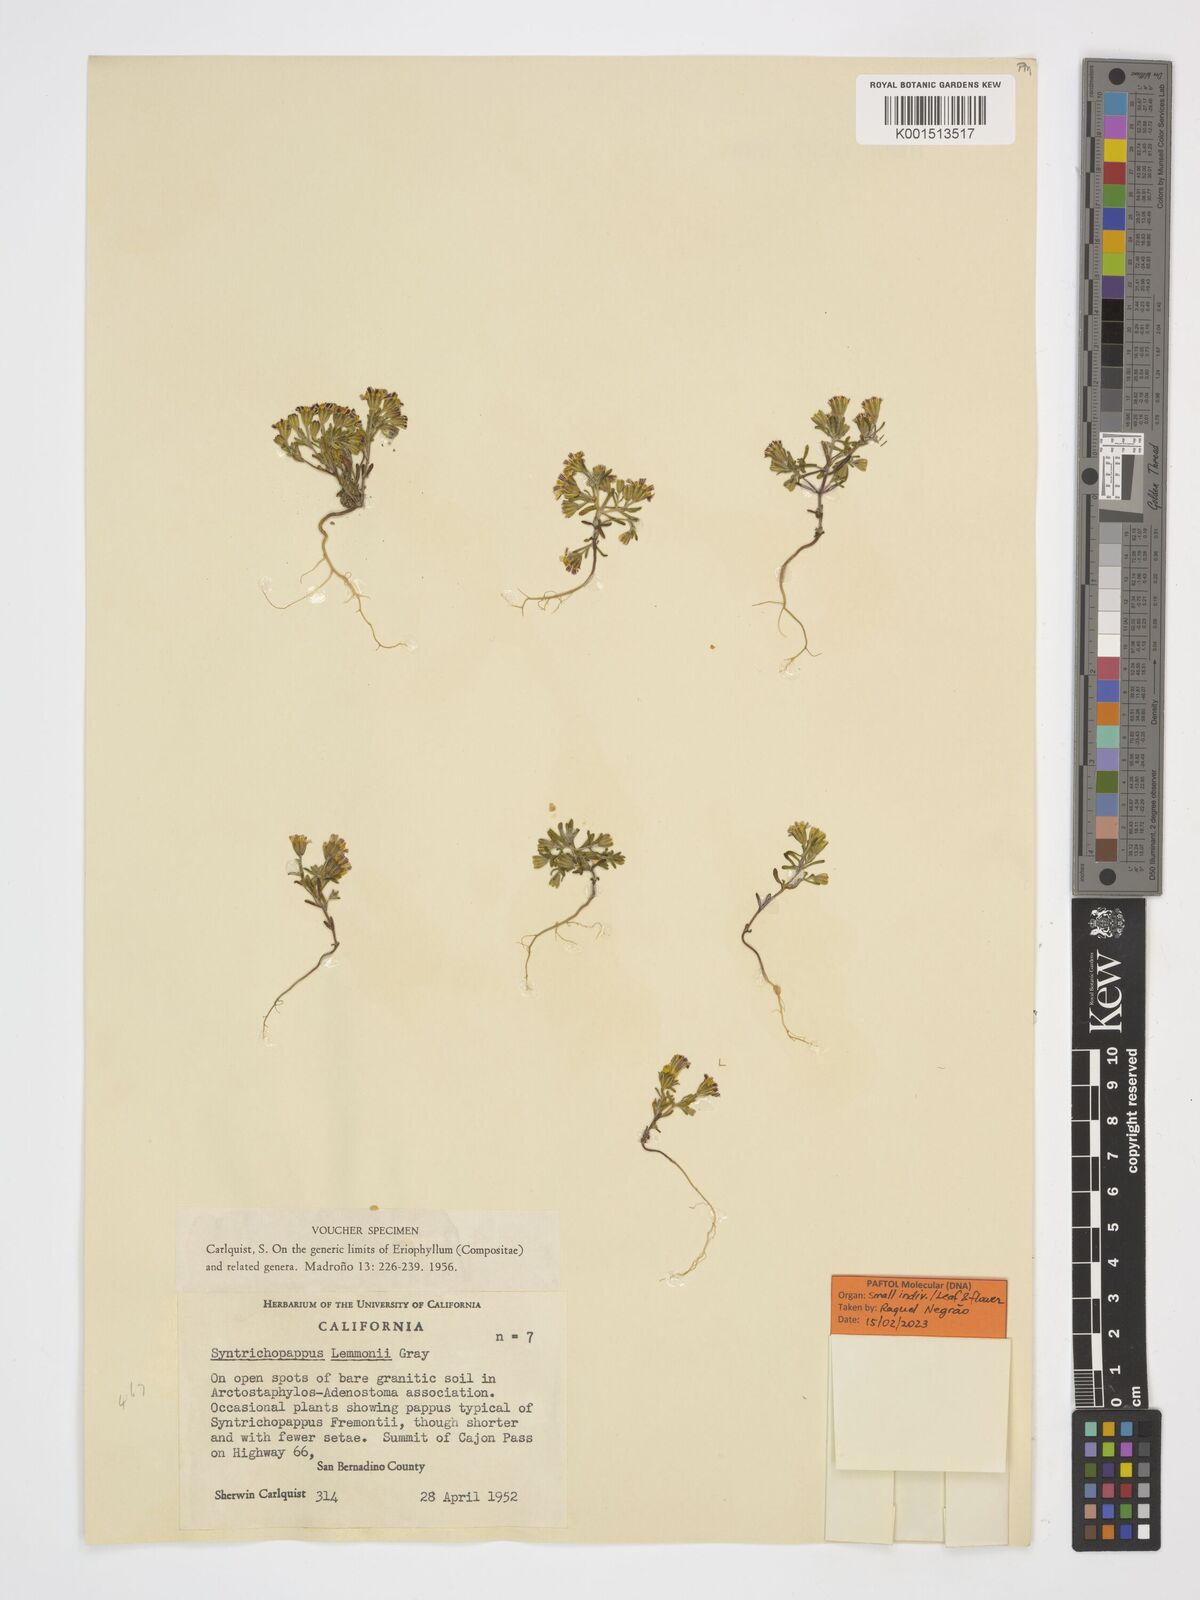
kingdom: Plantae
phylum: Tracheophyta
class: Magnoliopsida
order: Asterales
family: Asteraceae
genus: Syntrichopappus
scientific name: Syntrichopappus lemmonii
